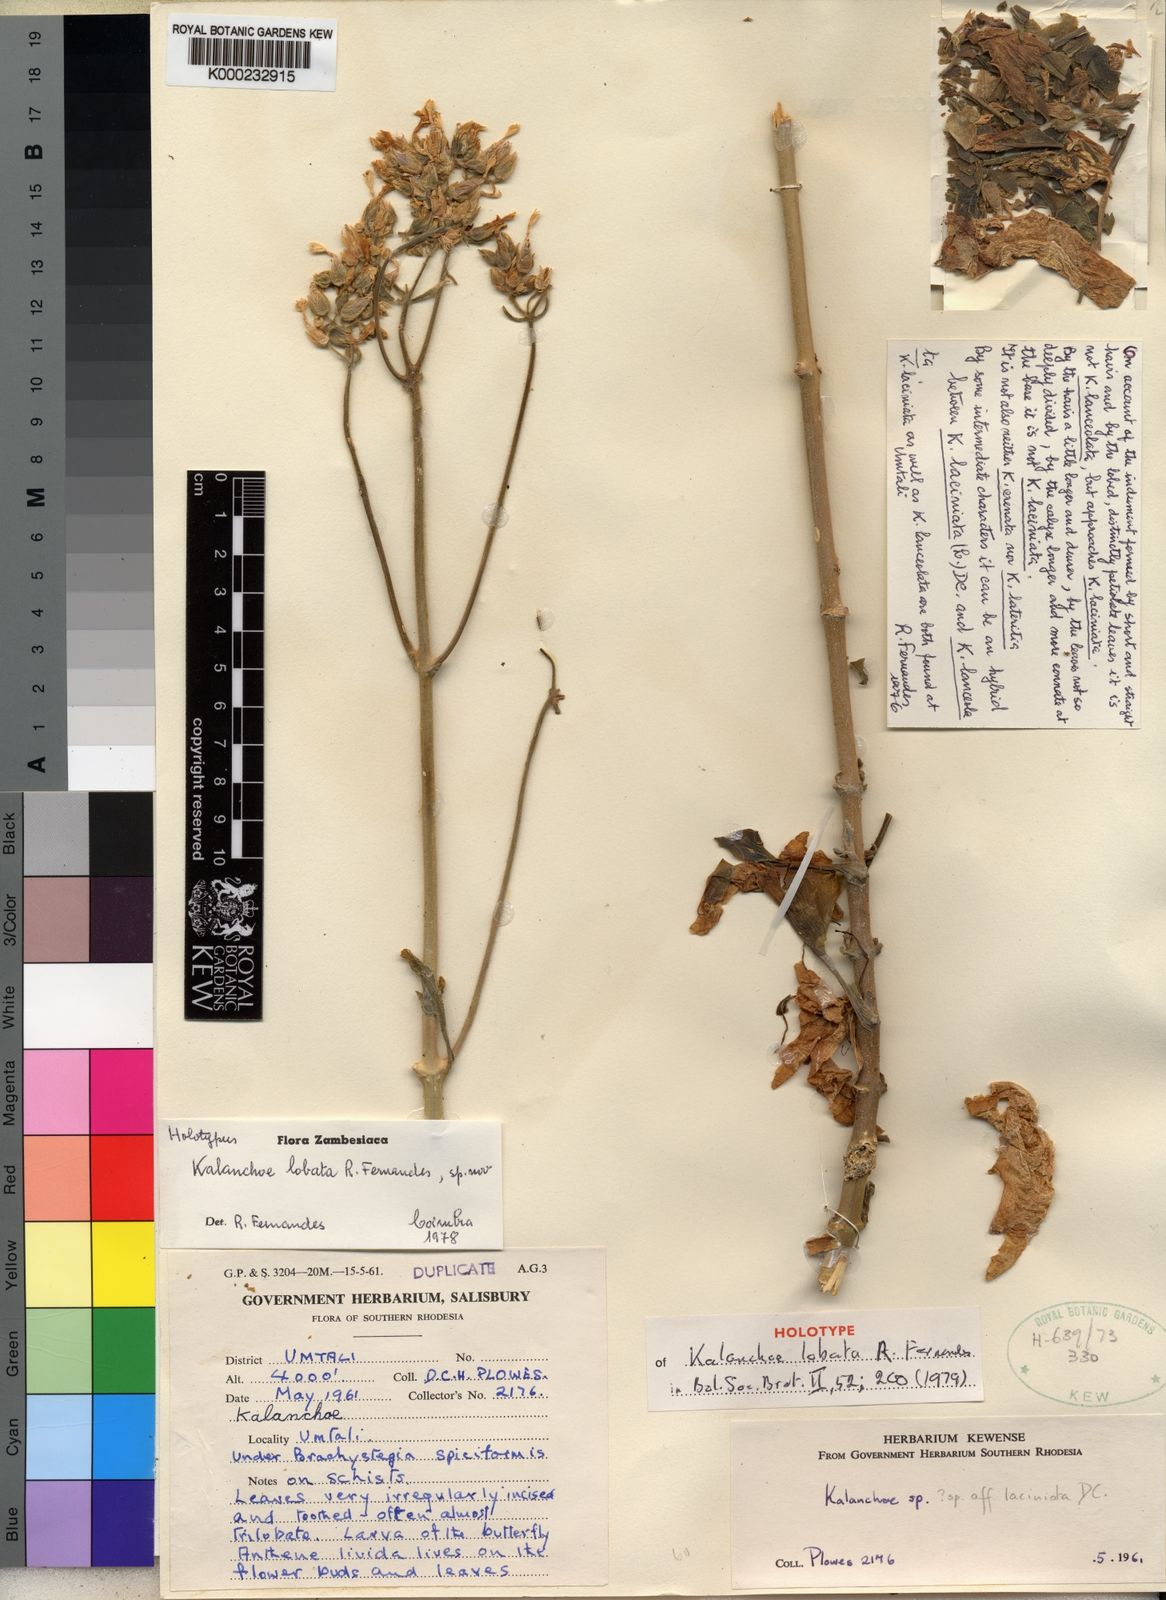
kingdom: Plantae
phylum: Tracheophyta
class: Magnoliopsida
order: Saxifragales
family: Crassulaceae
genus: Kalanchoe
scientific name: Kalanchoe lobata
